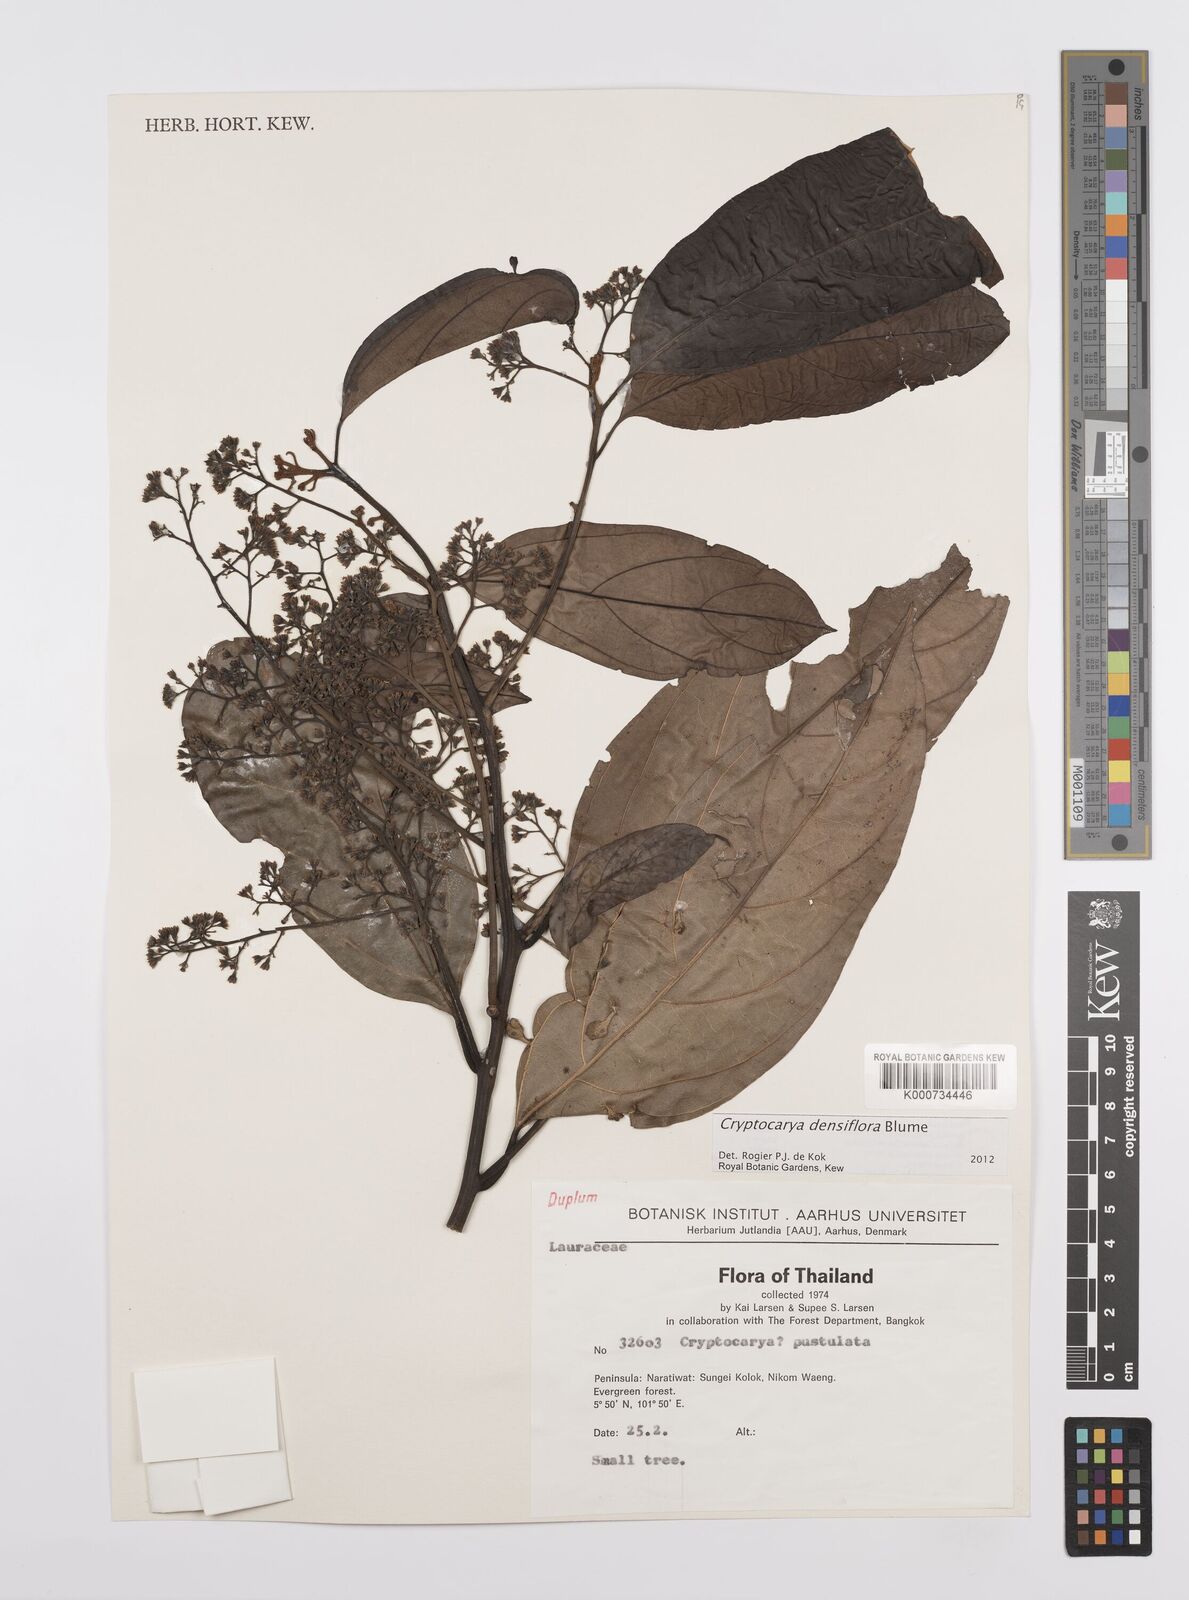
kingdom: Plantae
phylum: Tracheophyta
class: Magnoliopsida
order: Laurales
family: Lauraceae
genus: Cryptocarya
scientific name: Cryptocarya densiflora
